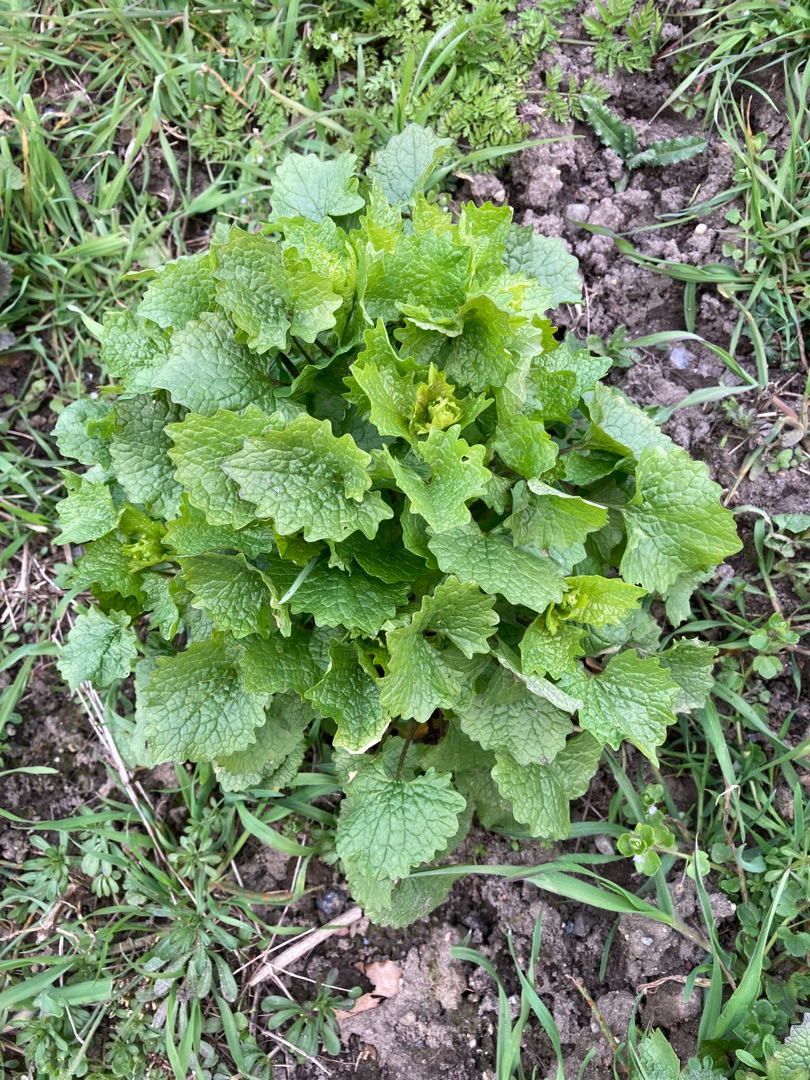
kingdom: Plantae
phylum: Tracheophyta
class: Magnoliopsida
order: Brassicales
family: Brassicaceae
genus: Alliaria
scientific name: Alliaria petiolata
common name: Løgkarse
